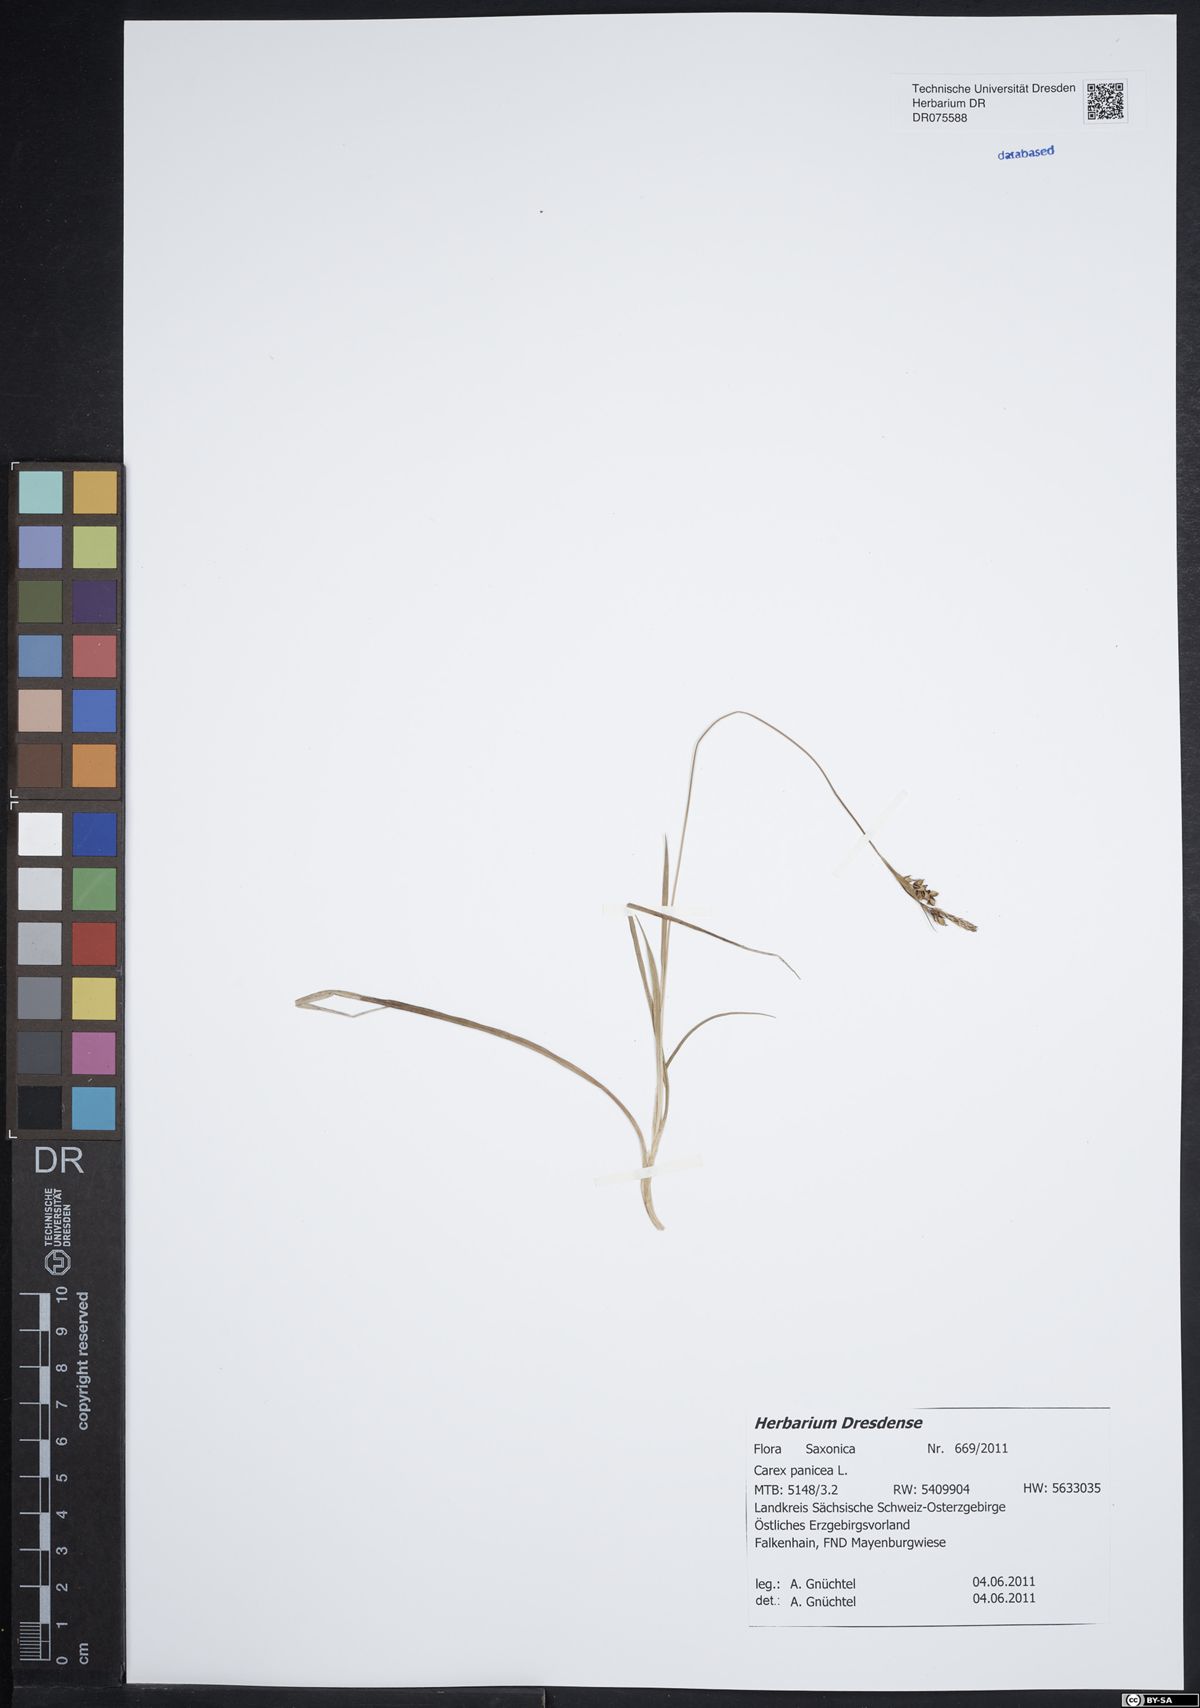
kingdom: Plantae
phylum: Tracheophyta
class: Liliopsida
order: Poales
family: Cyperaceae
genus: Carex
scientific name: Carex panicea
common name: Carnation sedge
